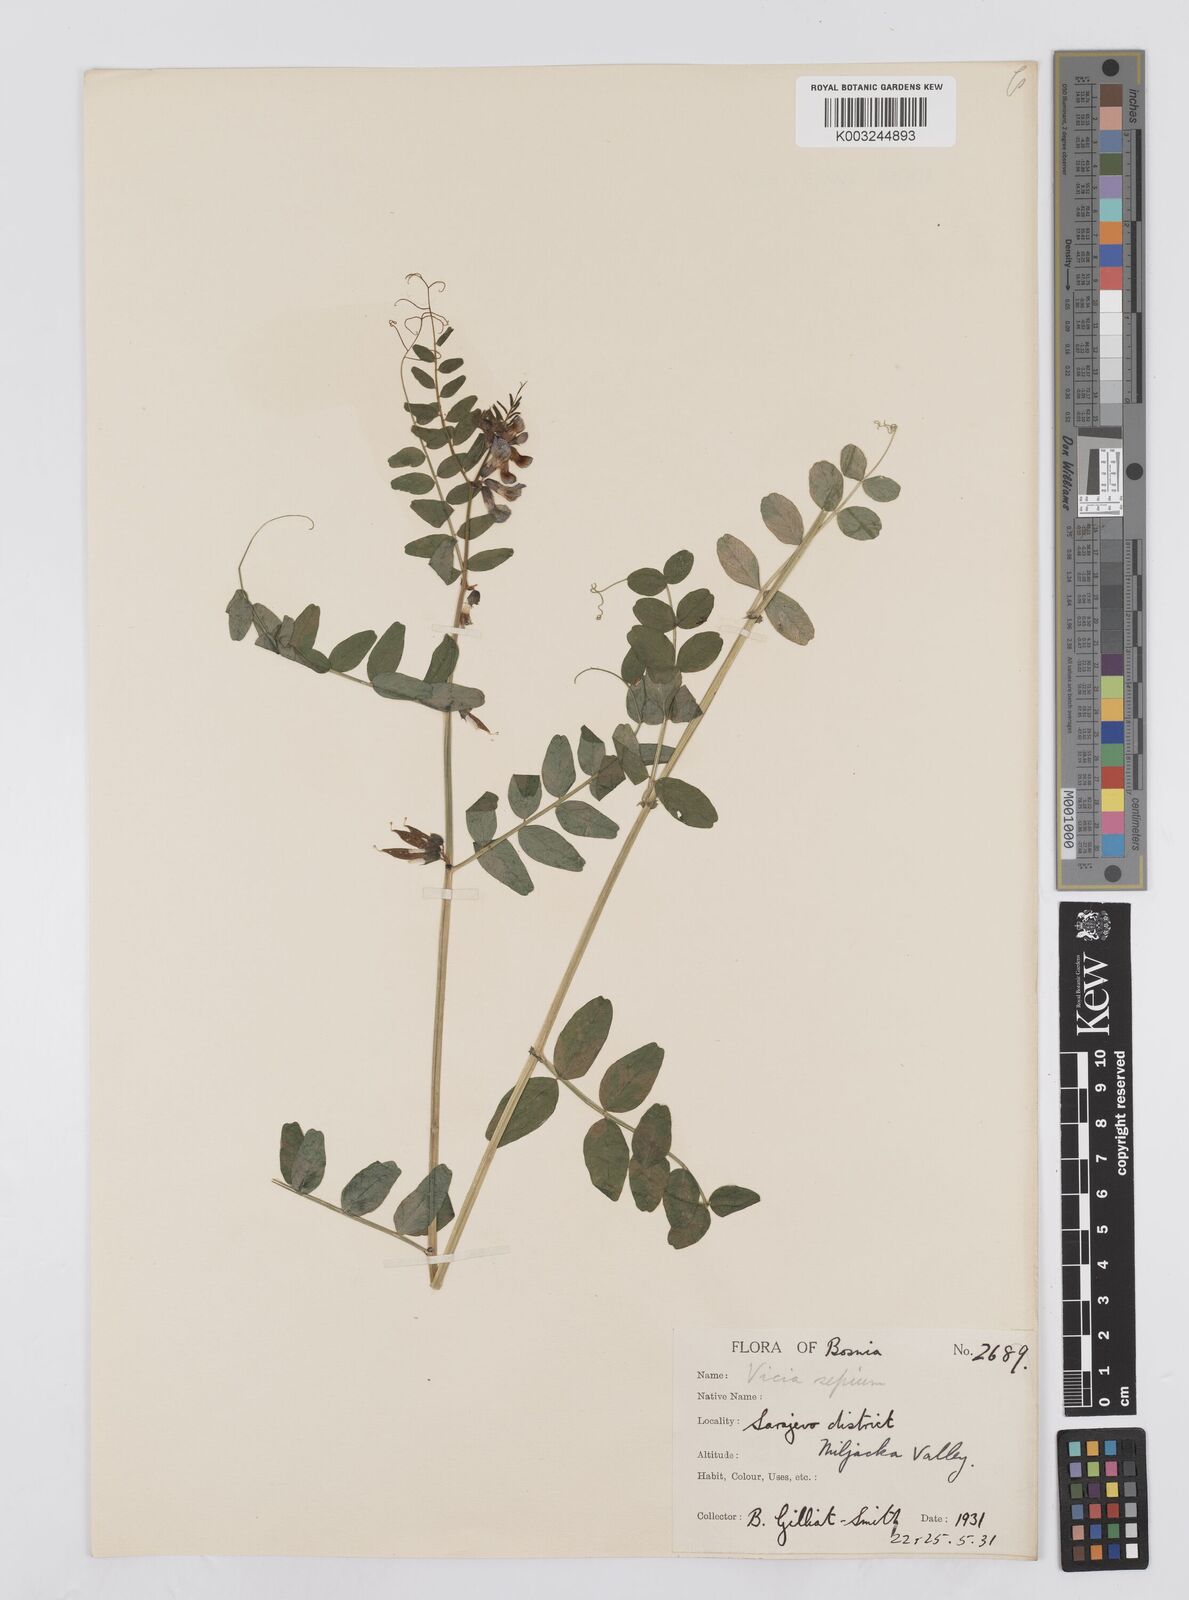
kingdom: Plantae
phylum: Tracheophyta
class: Magnoliopsida
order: Fabales
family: Fabaceae
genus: Vicia
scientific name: Vicia sepium
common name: Bush vetch
